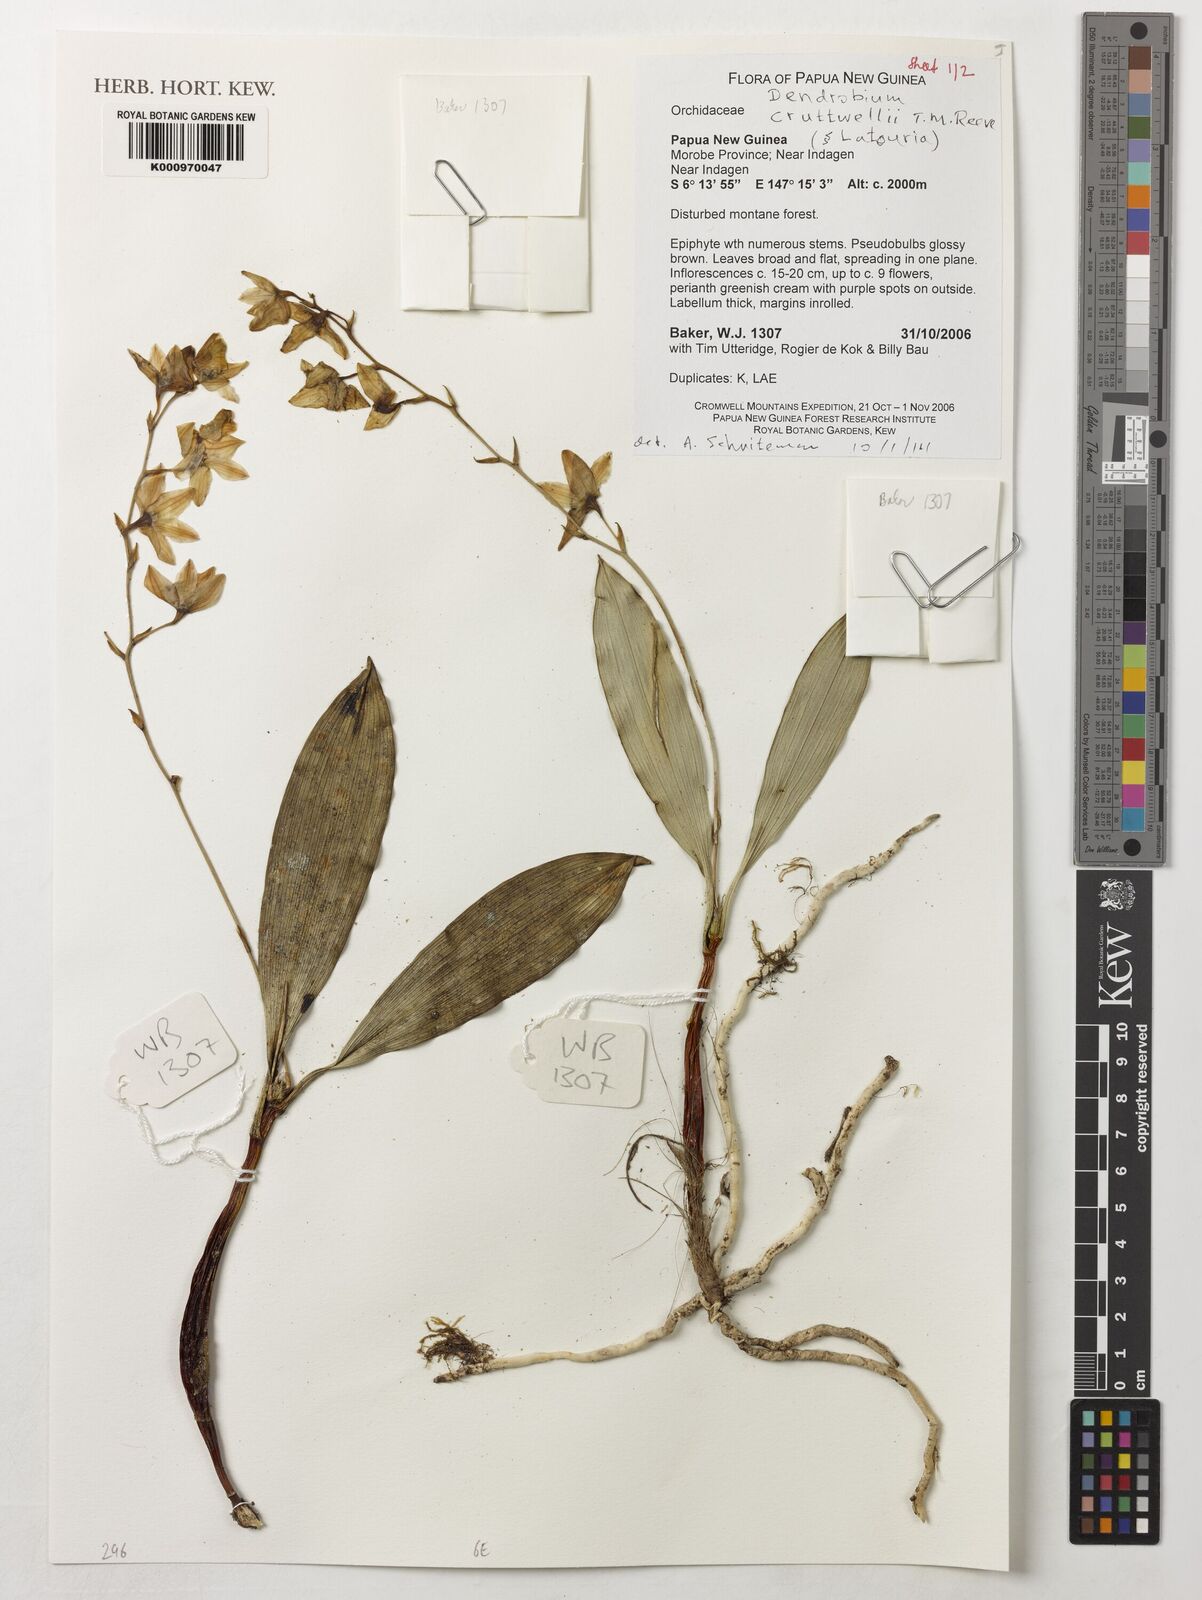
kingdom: Plantae
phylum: Tracheophyta
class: Liliopsida
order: Asparagales
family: Orchidaceae
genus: Dendrobium
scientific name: Dendrobium cruttwellii
